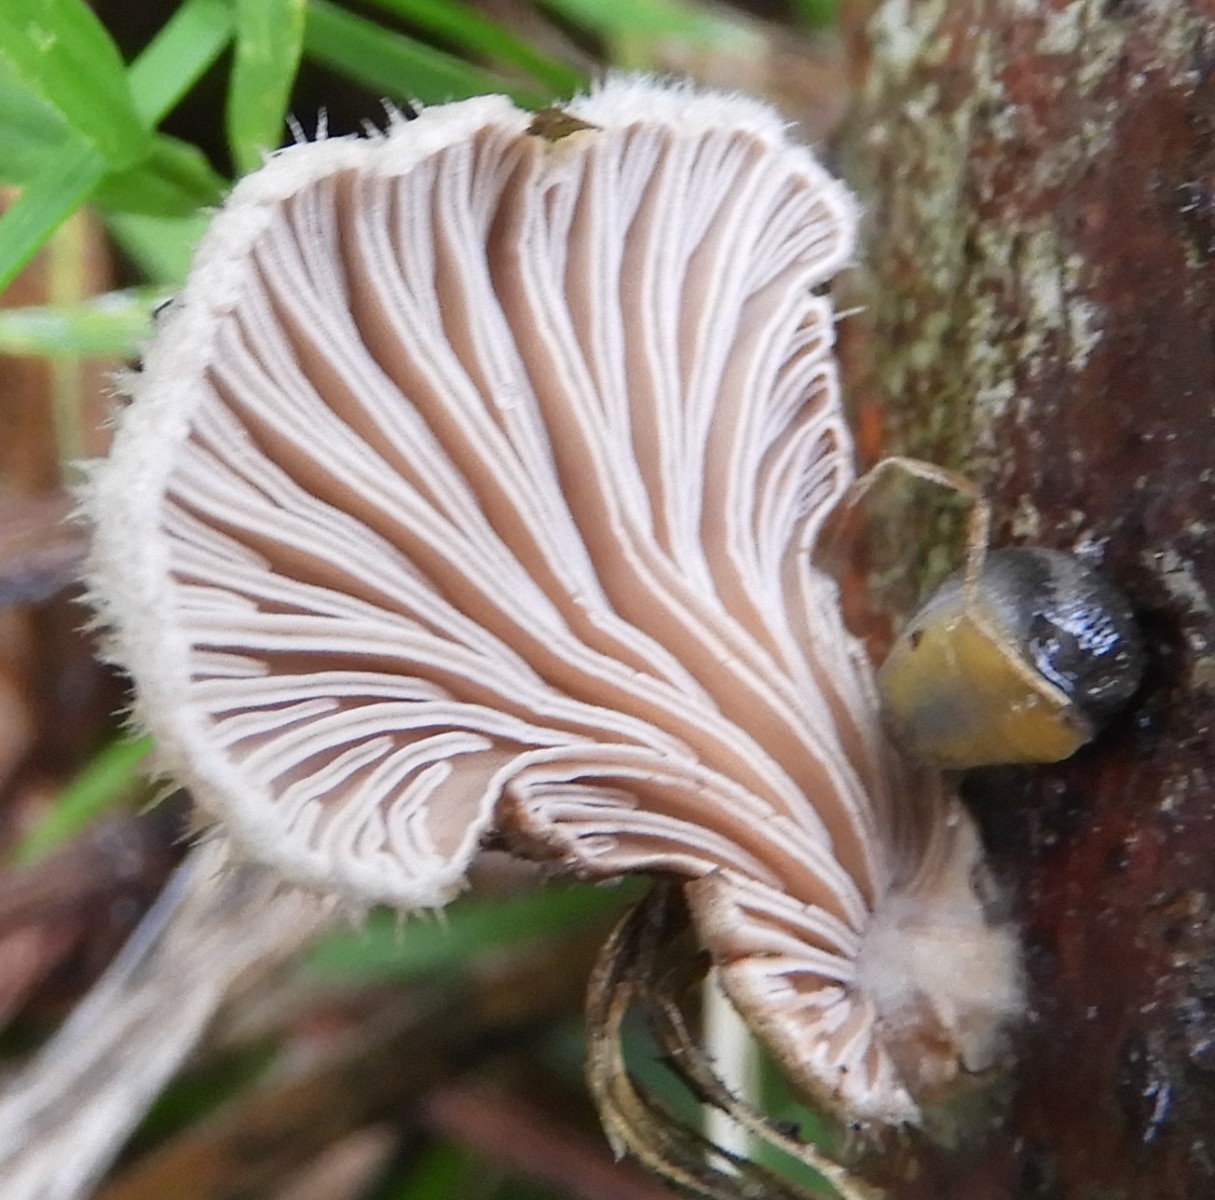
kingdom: Fungi
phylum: Basidiomycota
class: Agaricomycetes
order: Agaricales
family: Schizophyllaceae
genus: Schizophyllum
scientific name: Schizophyllum commune
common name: kløvblad
